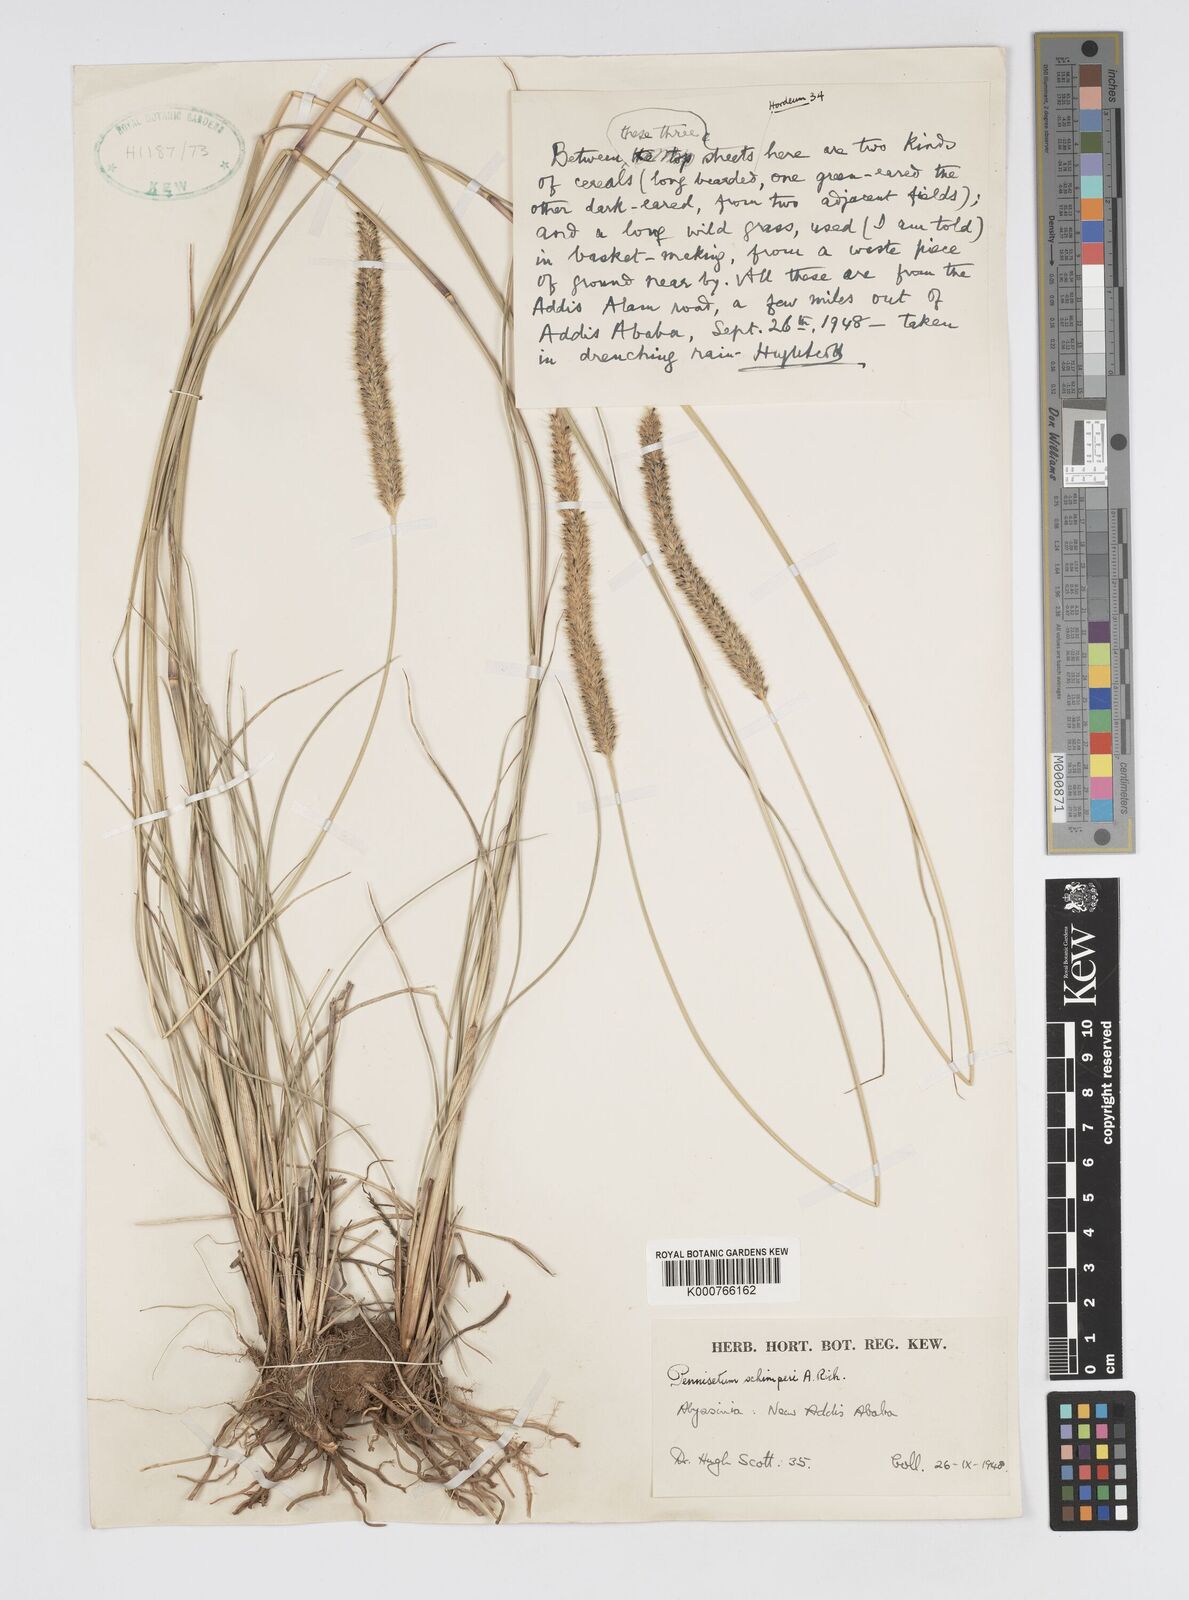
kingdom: Plantae
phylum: Tracheophyta
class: Liliopsida
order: Poales
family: Poaceae
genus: Cenchrus
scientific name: Cenchrus sphacelatus
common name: Bulgras
